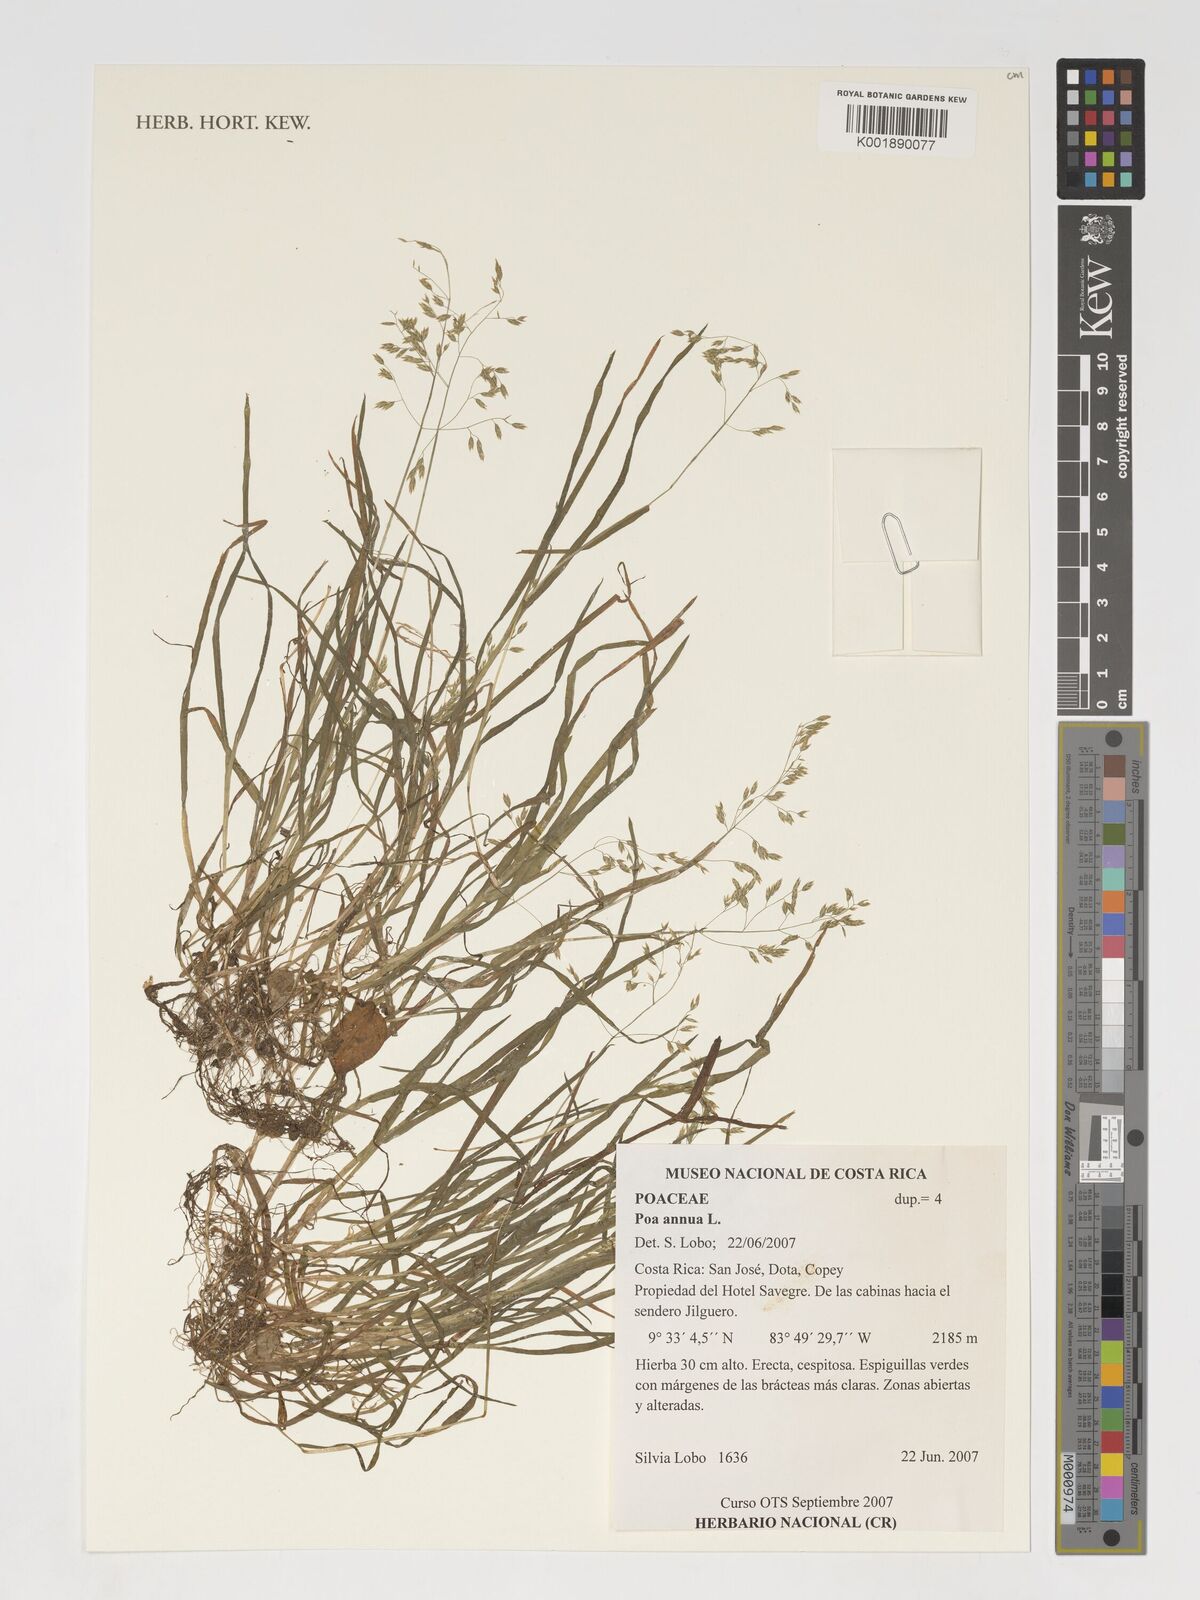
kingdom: Plantae
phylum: Tracheophyta
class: Liliopsida
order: Poales
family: Poaceae
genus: Poa
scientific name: Poa annua
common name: Annual bluegrass
